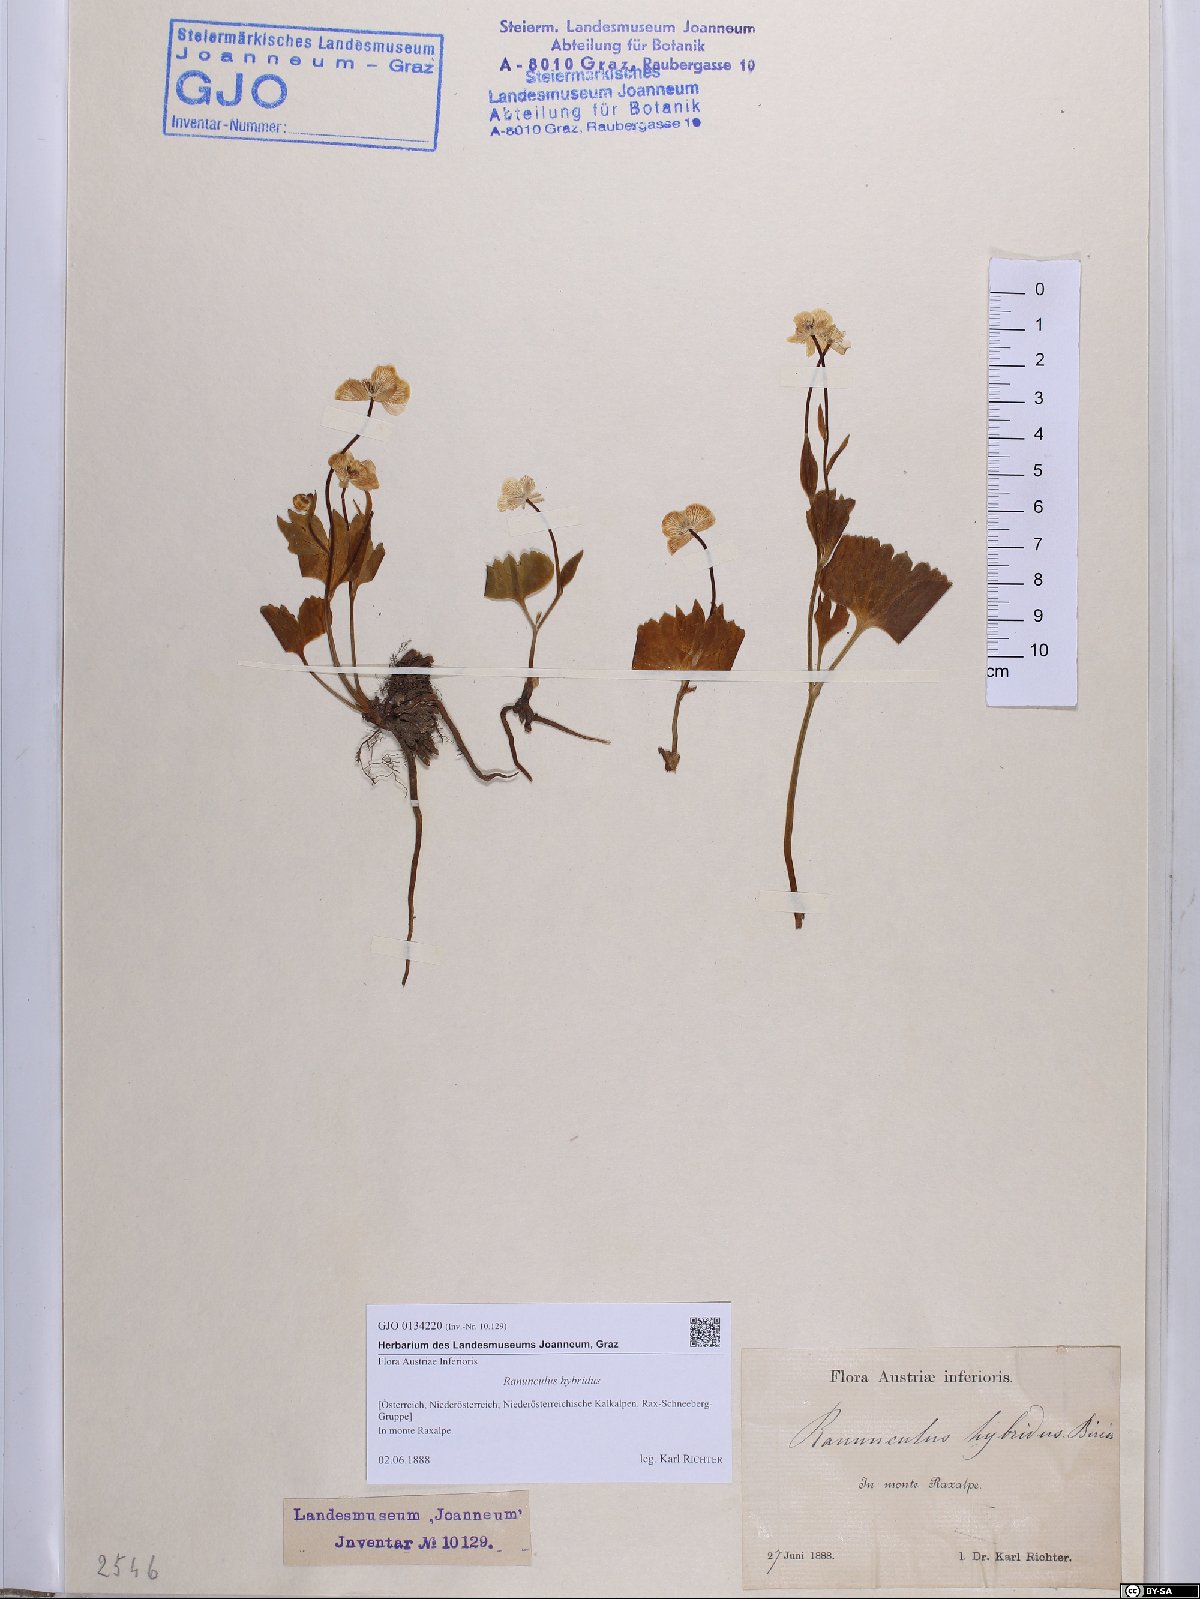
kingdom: Plantae
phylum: Tracheophyta
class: Magnoliopsida
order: Ranunculales
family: Ranunculaceae
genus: Ranunculus
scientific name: Ranunculus hybridus
